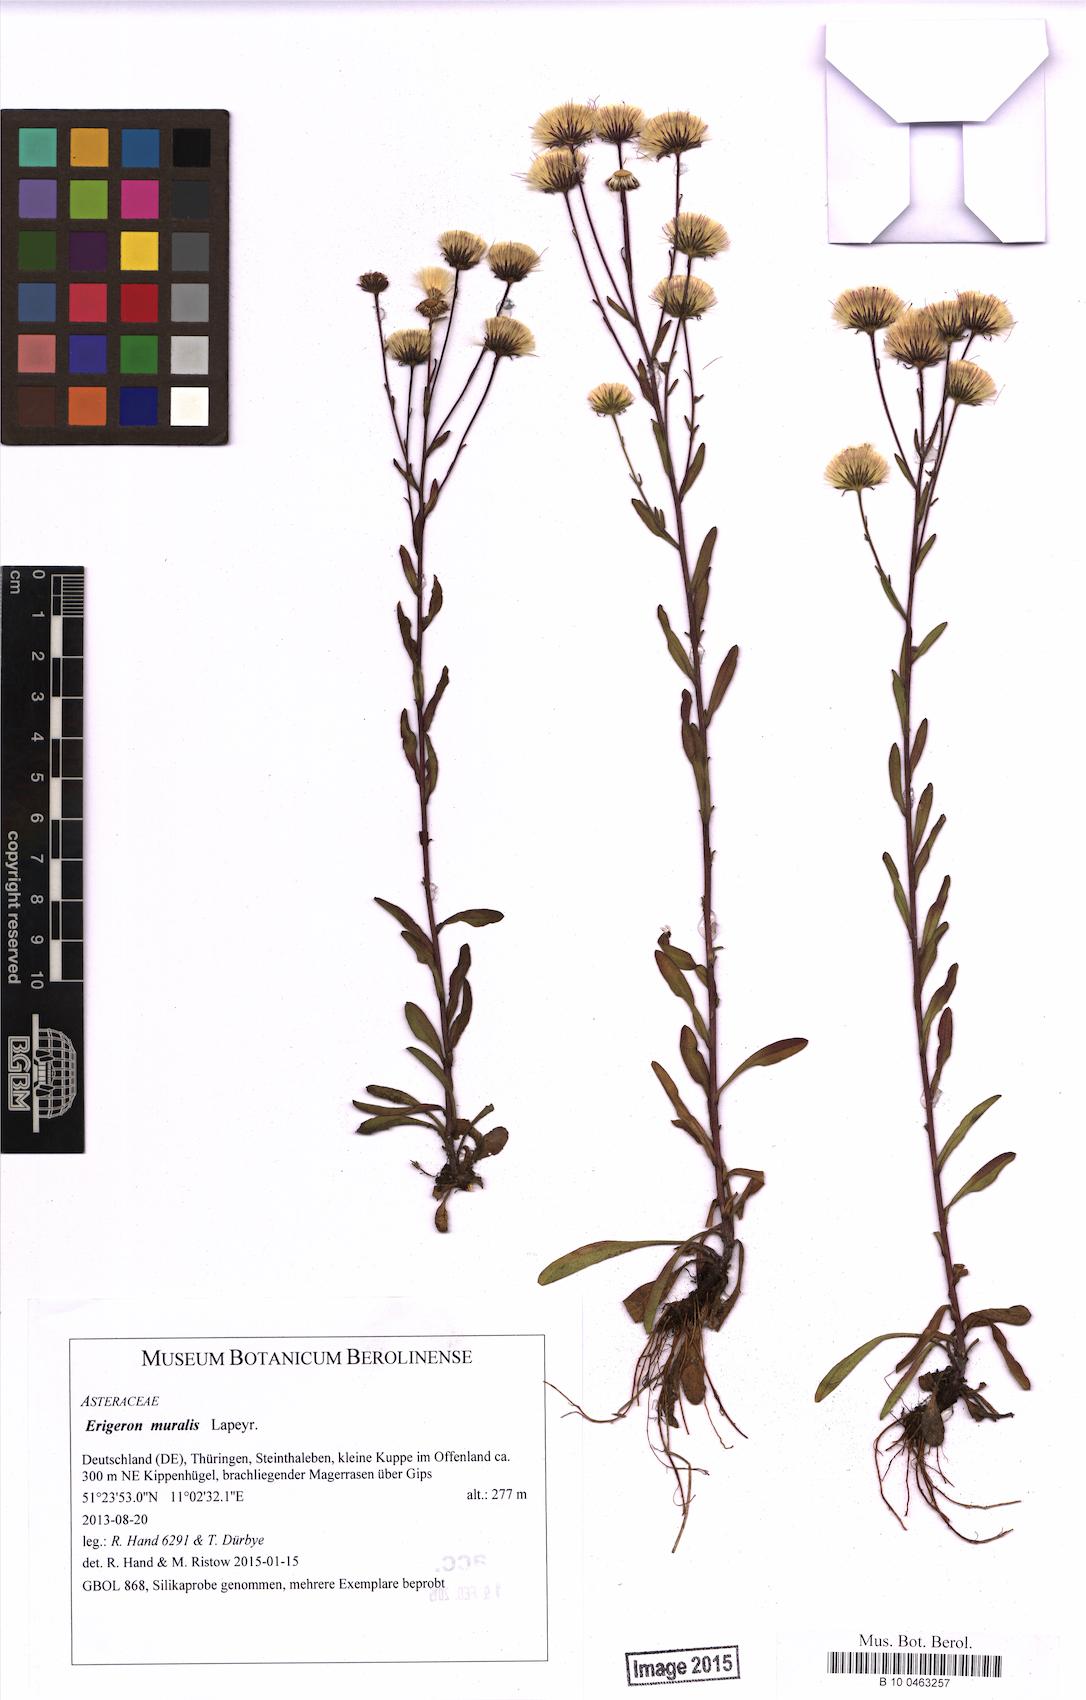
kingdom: Plantae
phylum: Tracheophyta
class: Magnoliopsida
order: Asterales
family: Asteraceae
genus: Erigeron
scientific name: Erigeron muralis
